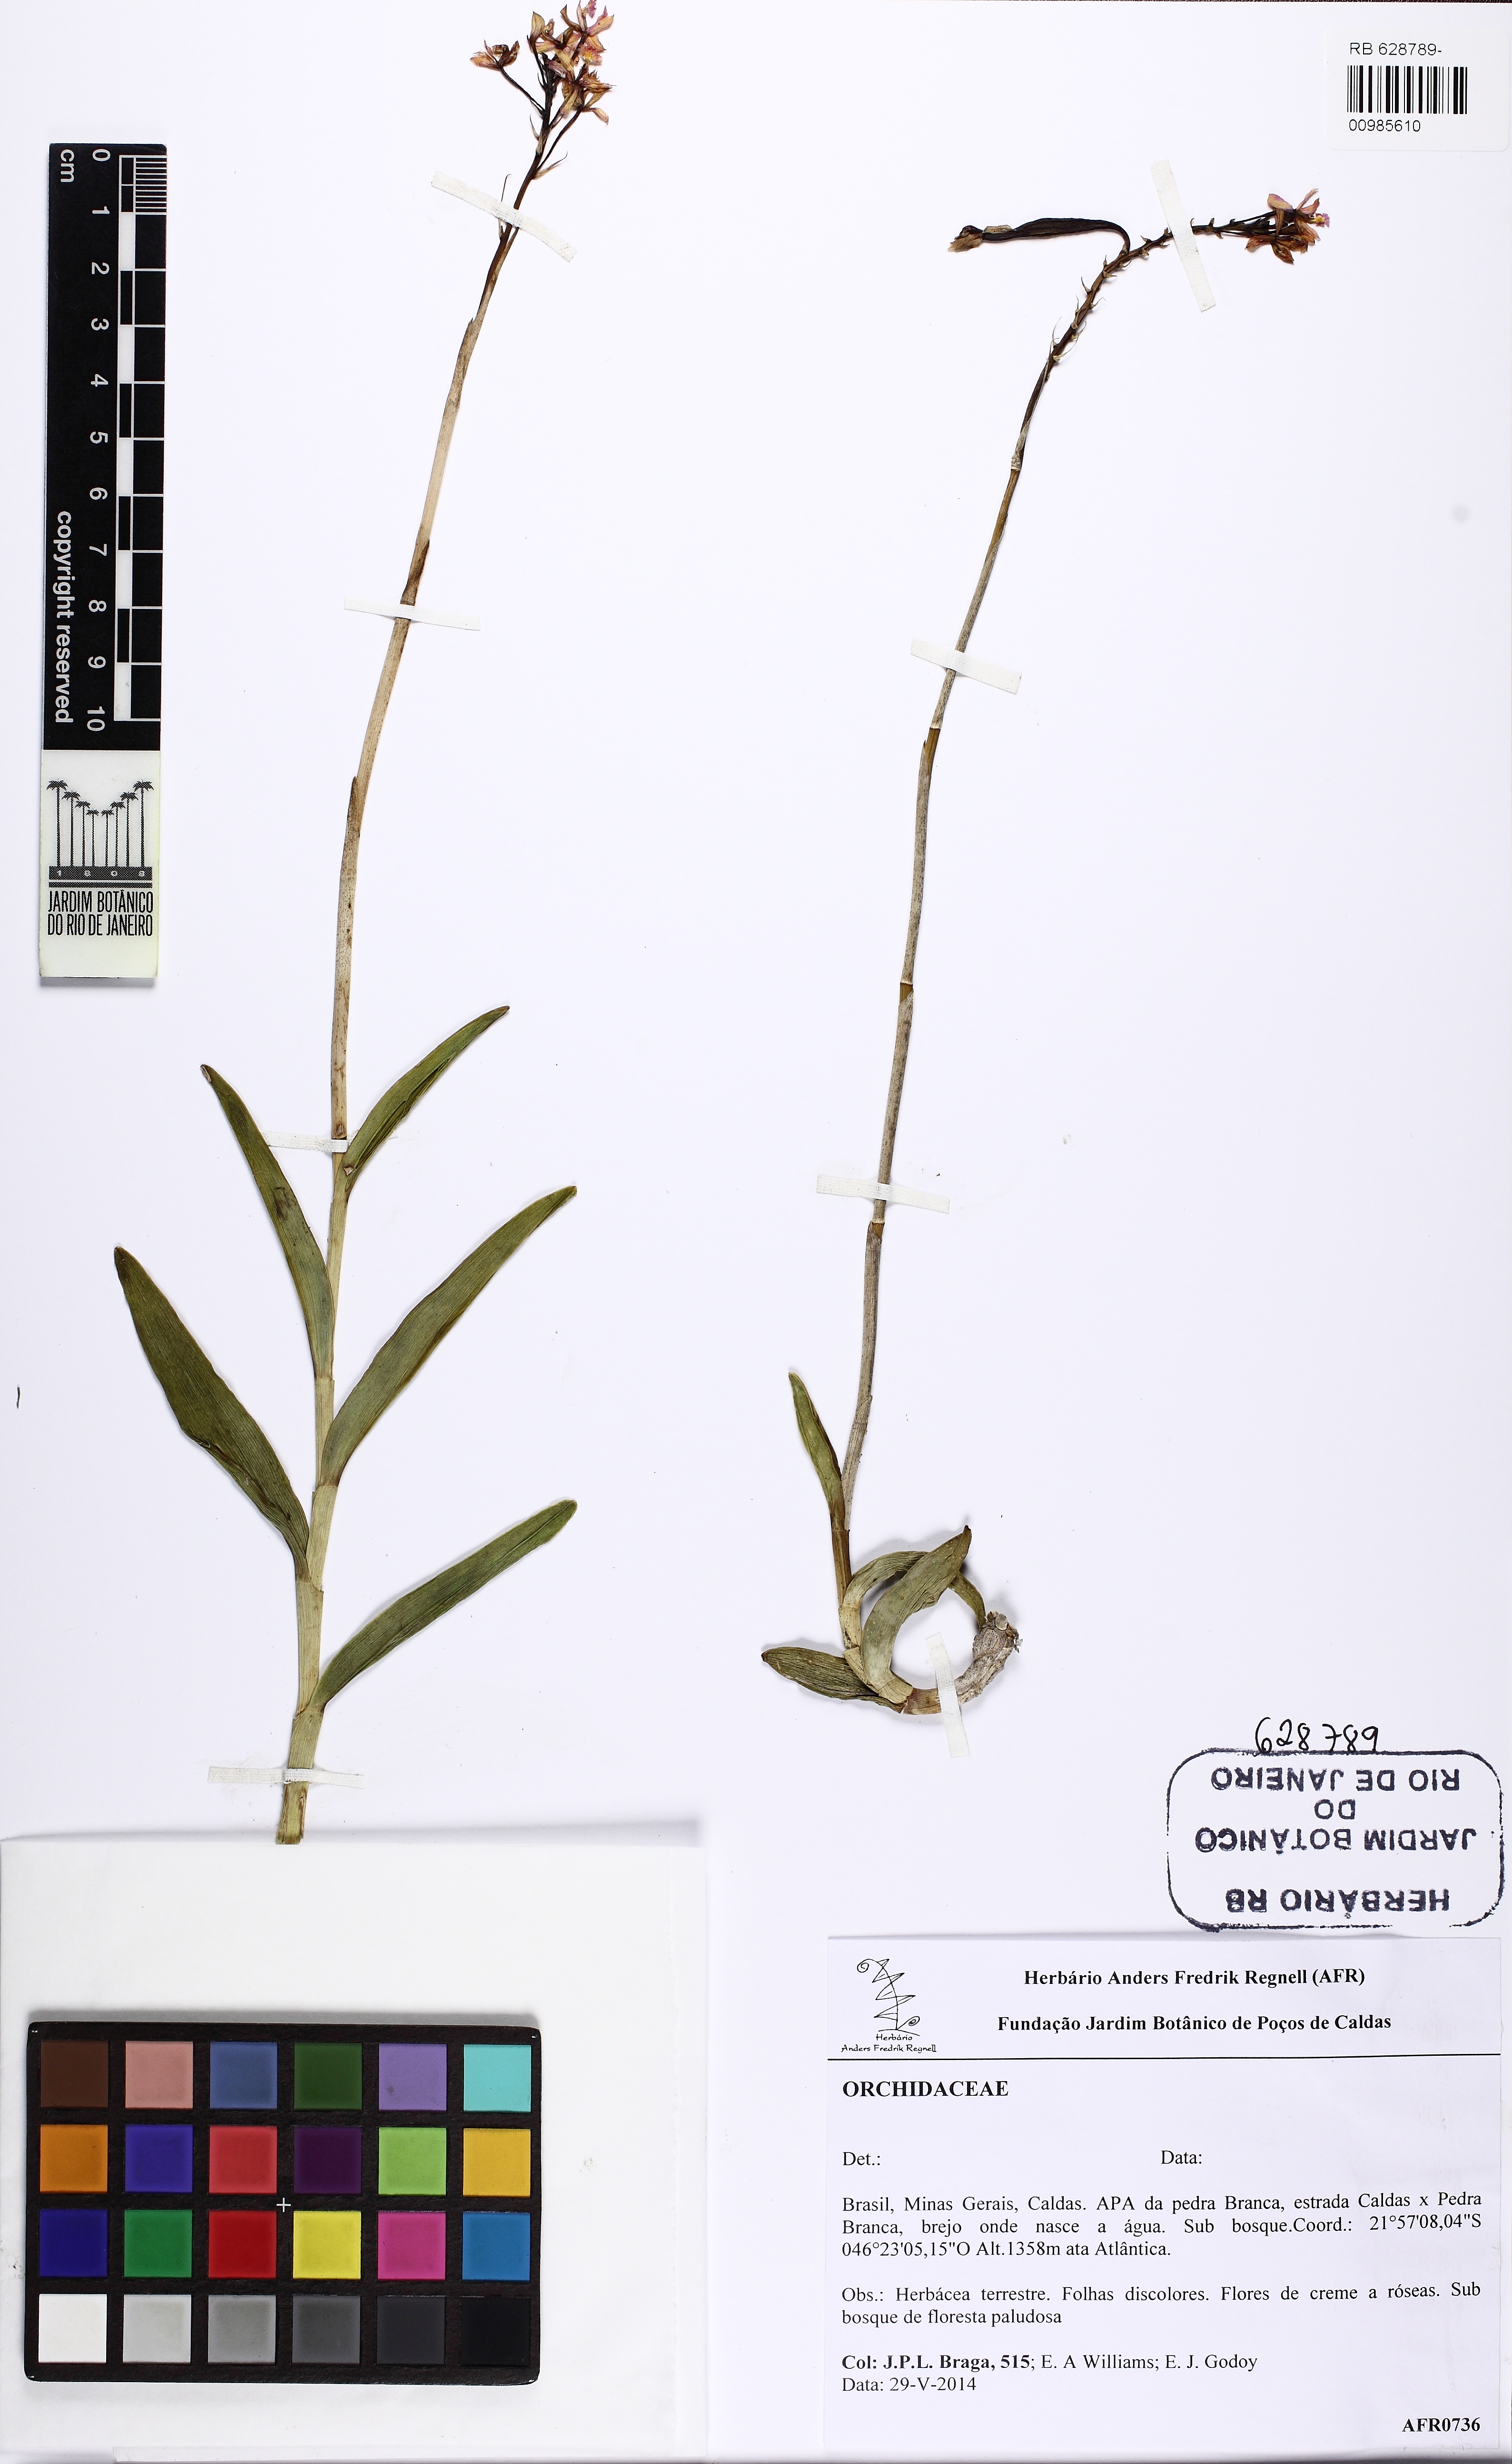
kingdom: Plantae
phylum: Tracheophyta
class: Liliopsida
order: Asparagales
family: Orchidaceae
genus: Epidendrum
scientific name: Epidendrum secundum
